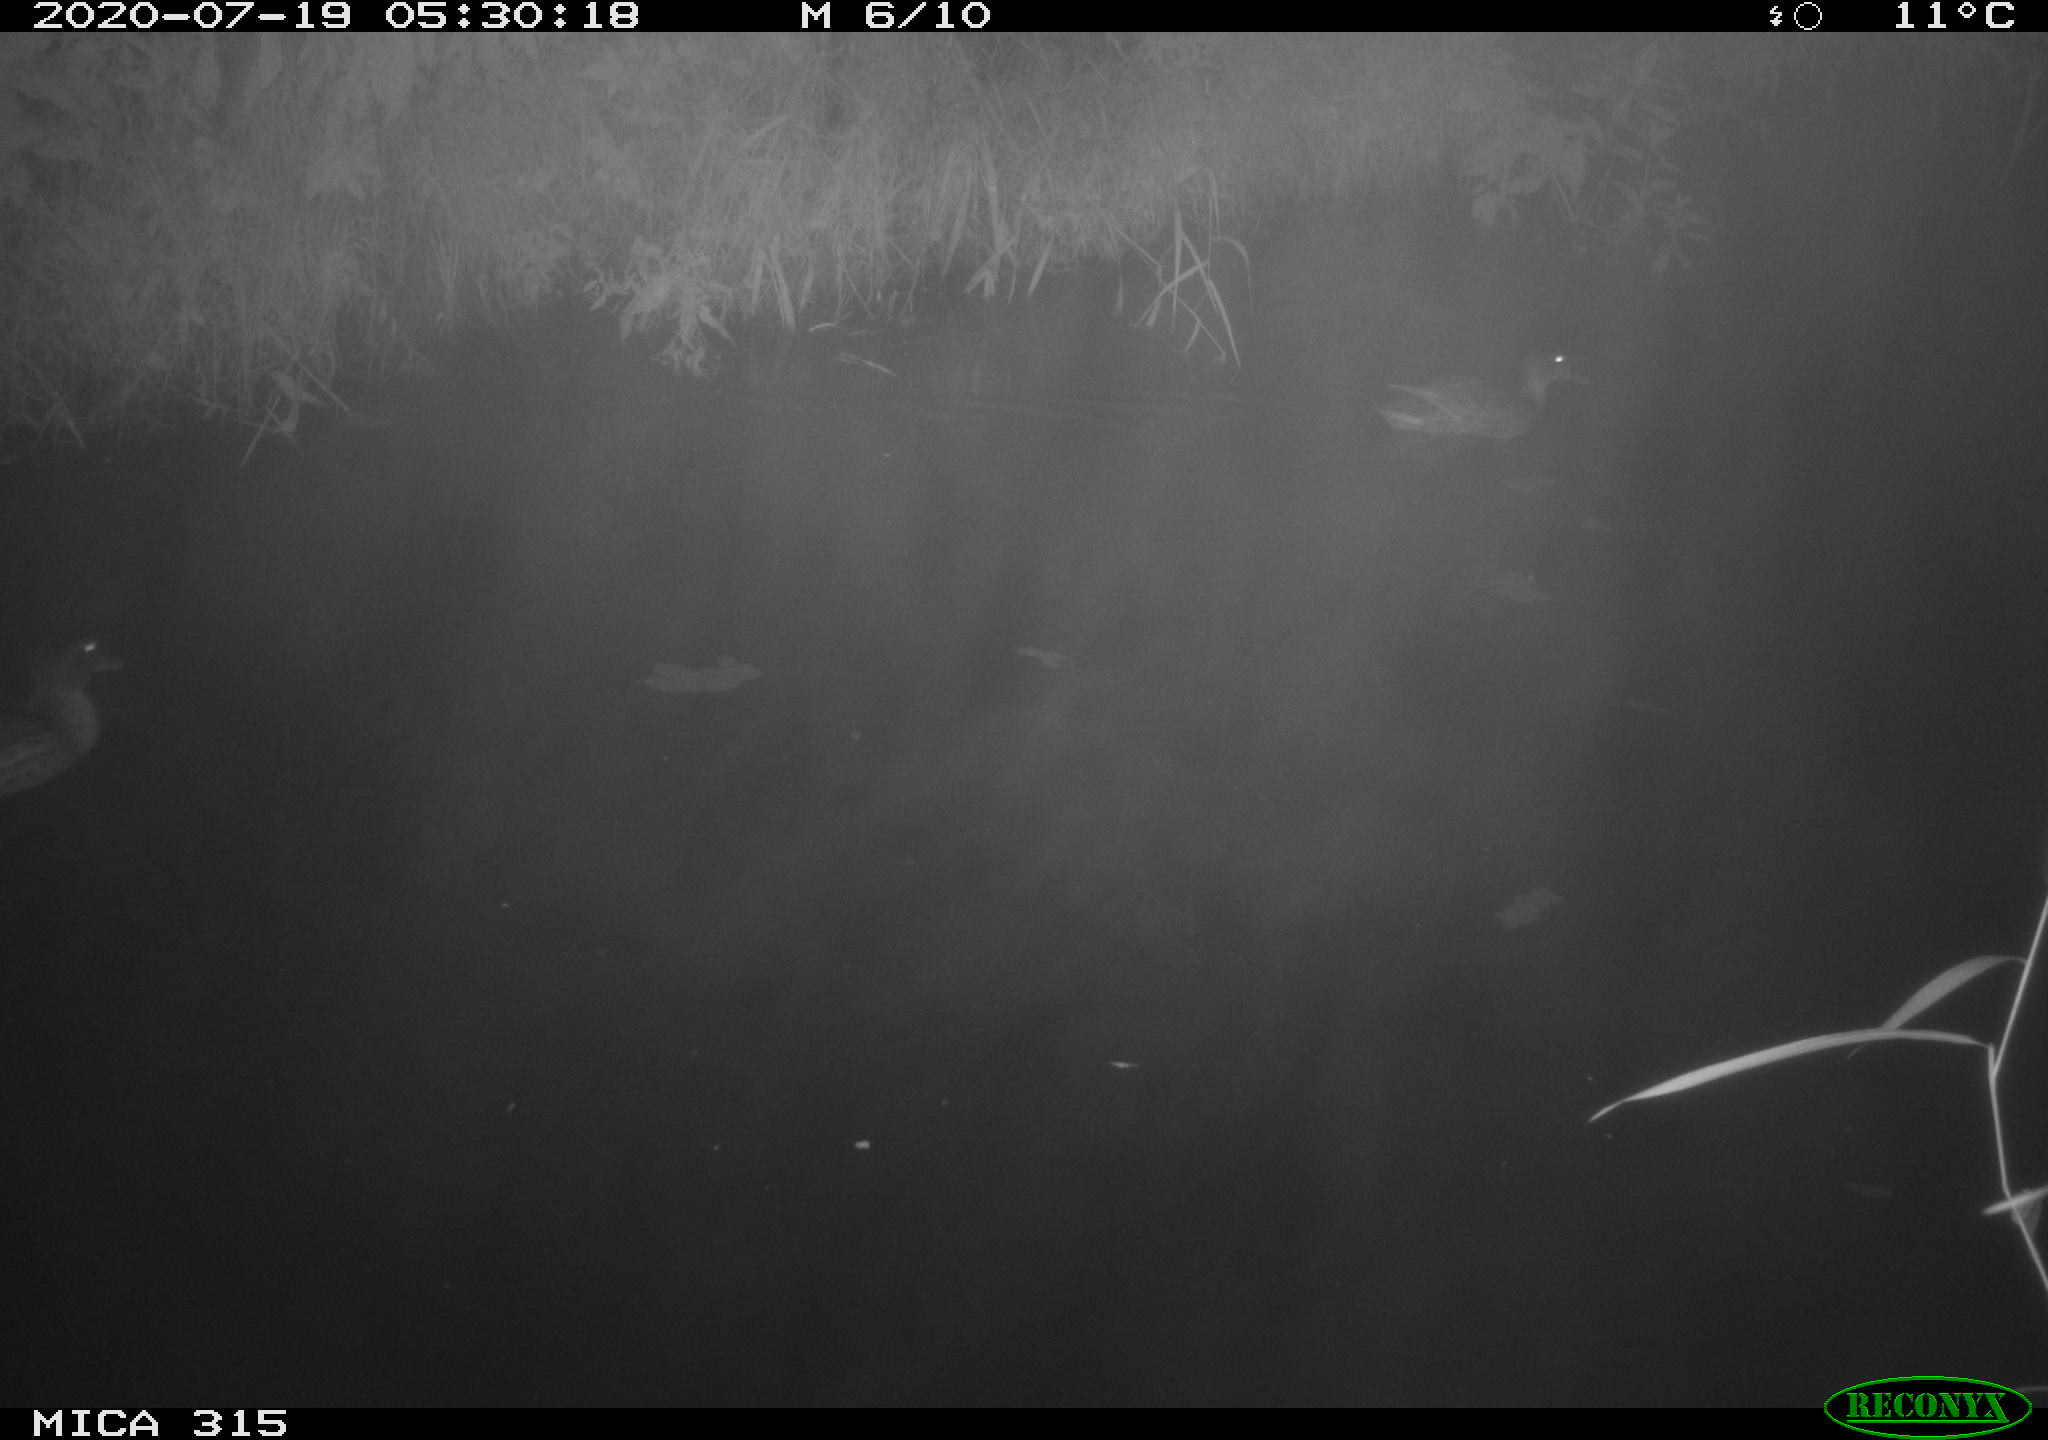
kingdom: Animalia
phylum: Chordata
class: Aves
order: Anseriformes
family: Anatidae
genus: Anas
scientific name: Anas platyrhynchos
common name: Mallard
